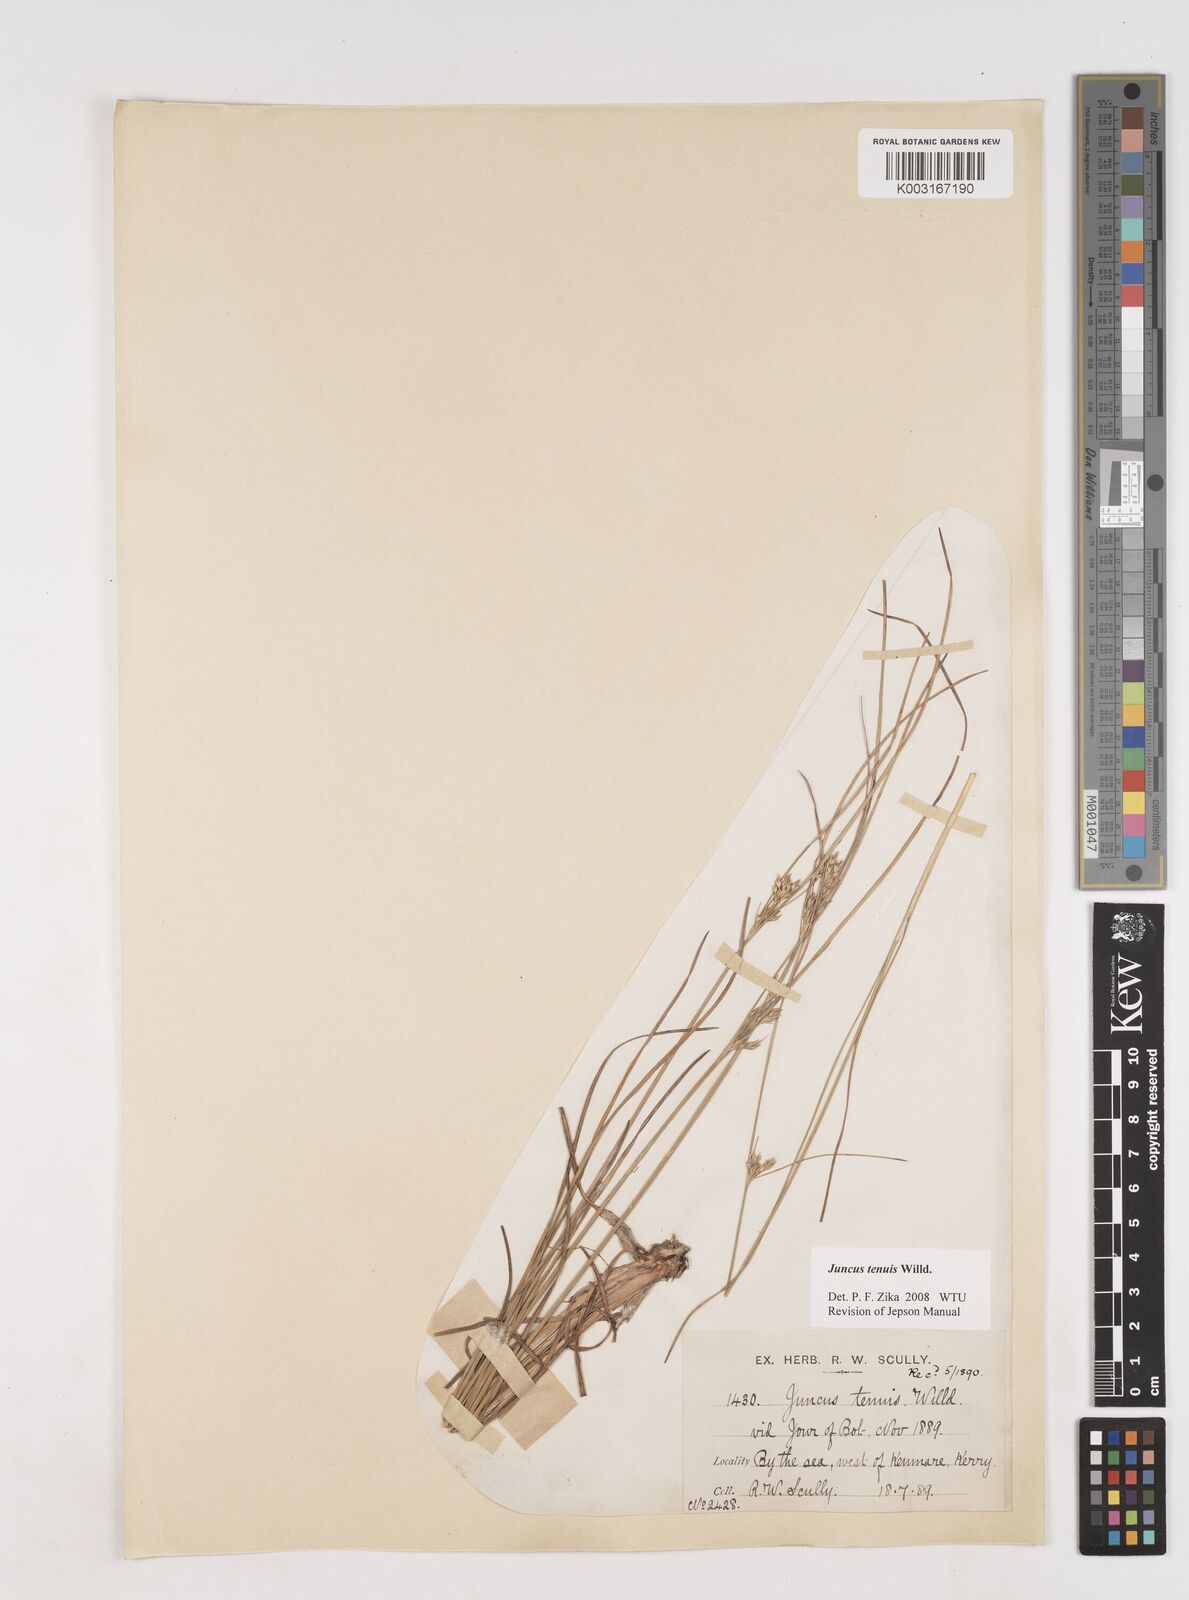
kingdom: Plantae
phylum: Tracheophyta
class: Liliopsida
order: Poales
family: Juncaceae
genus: Juncus
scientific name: Juncus tenuis
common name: Slender rush
